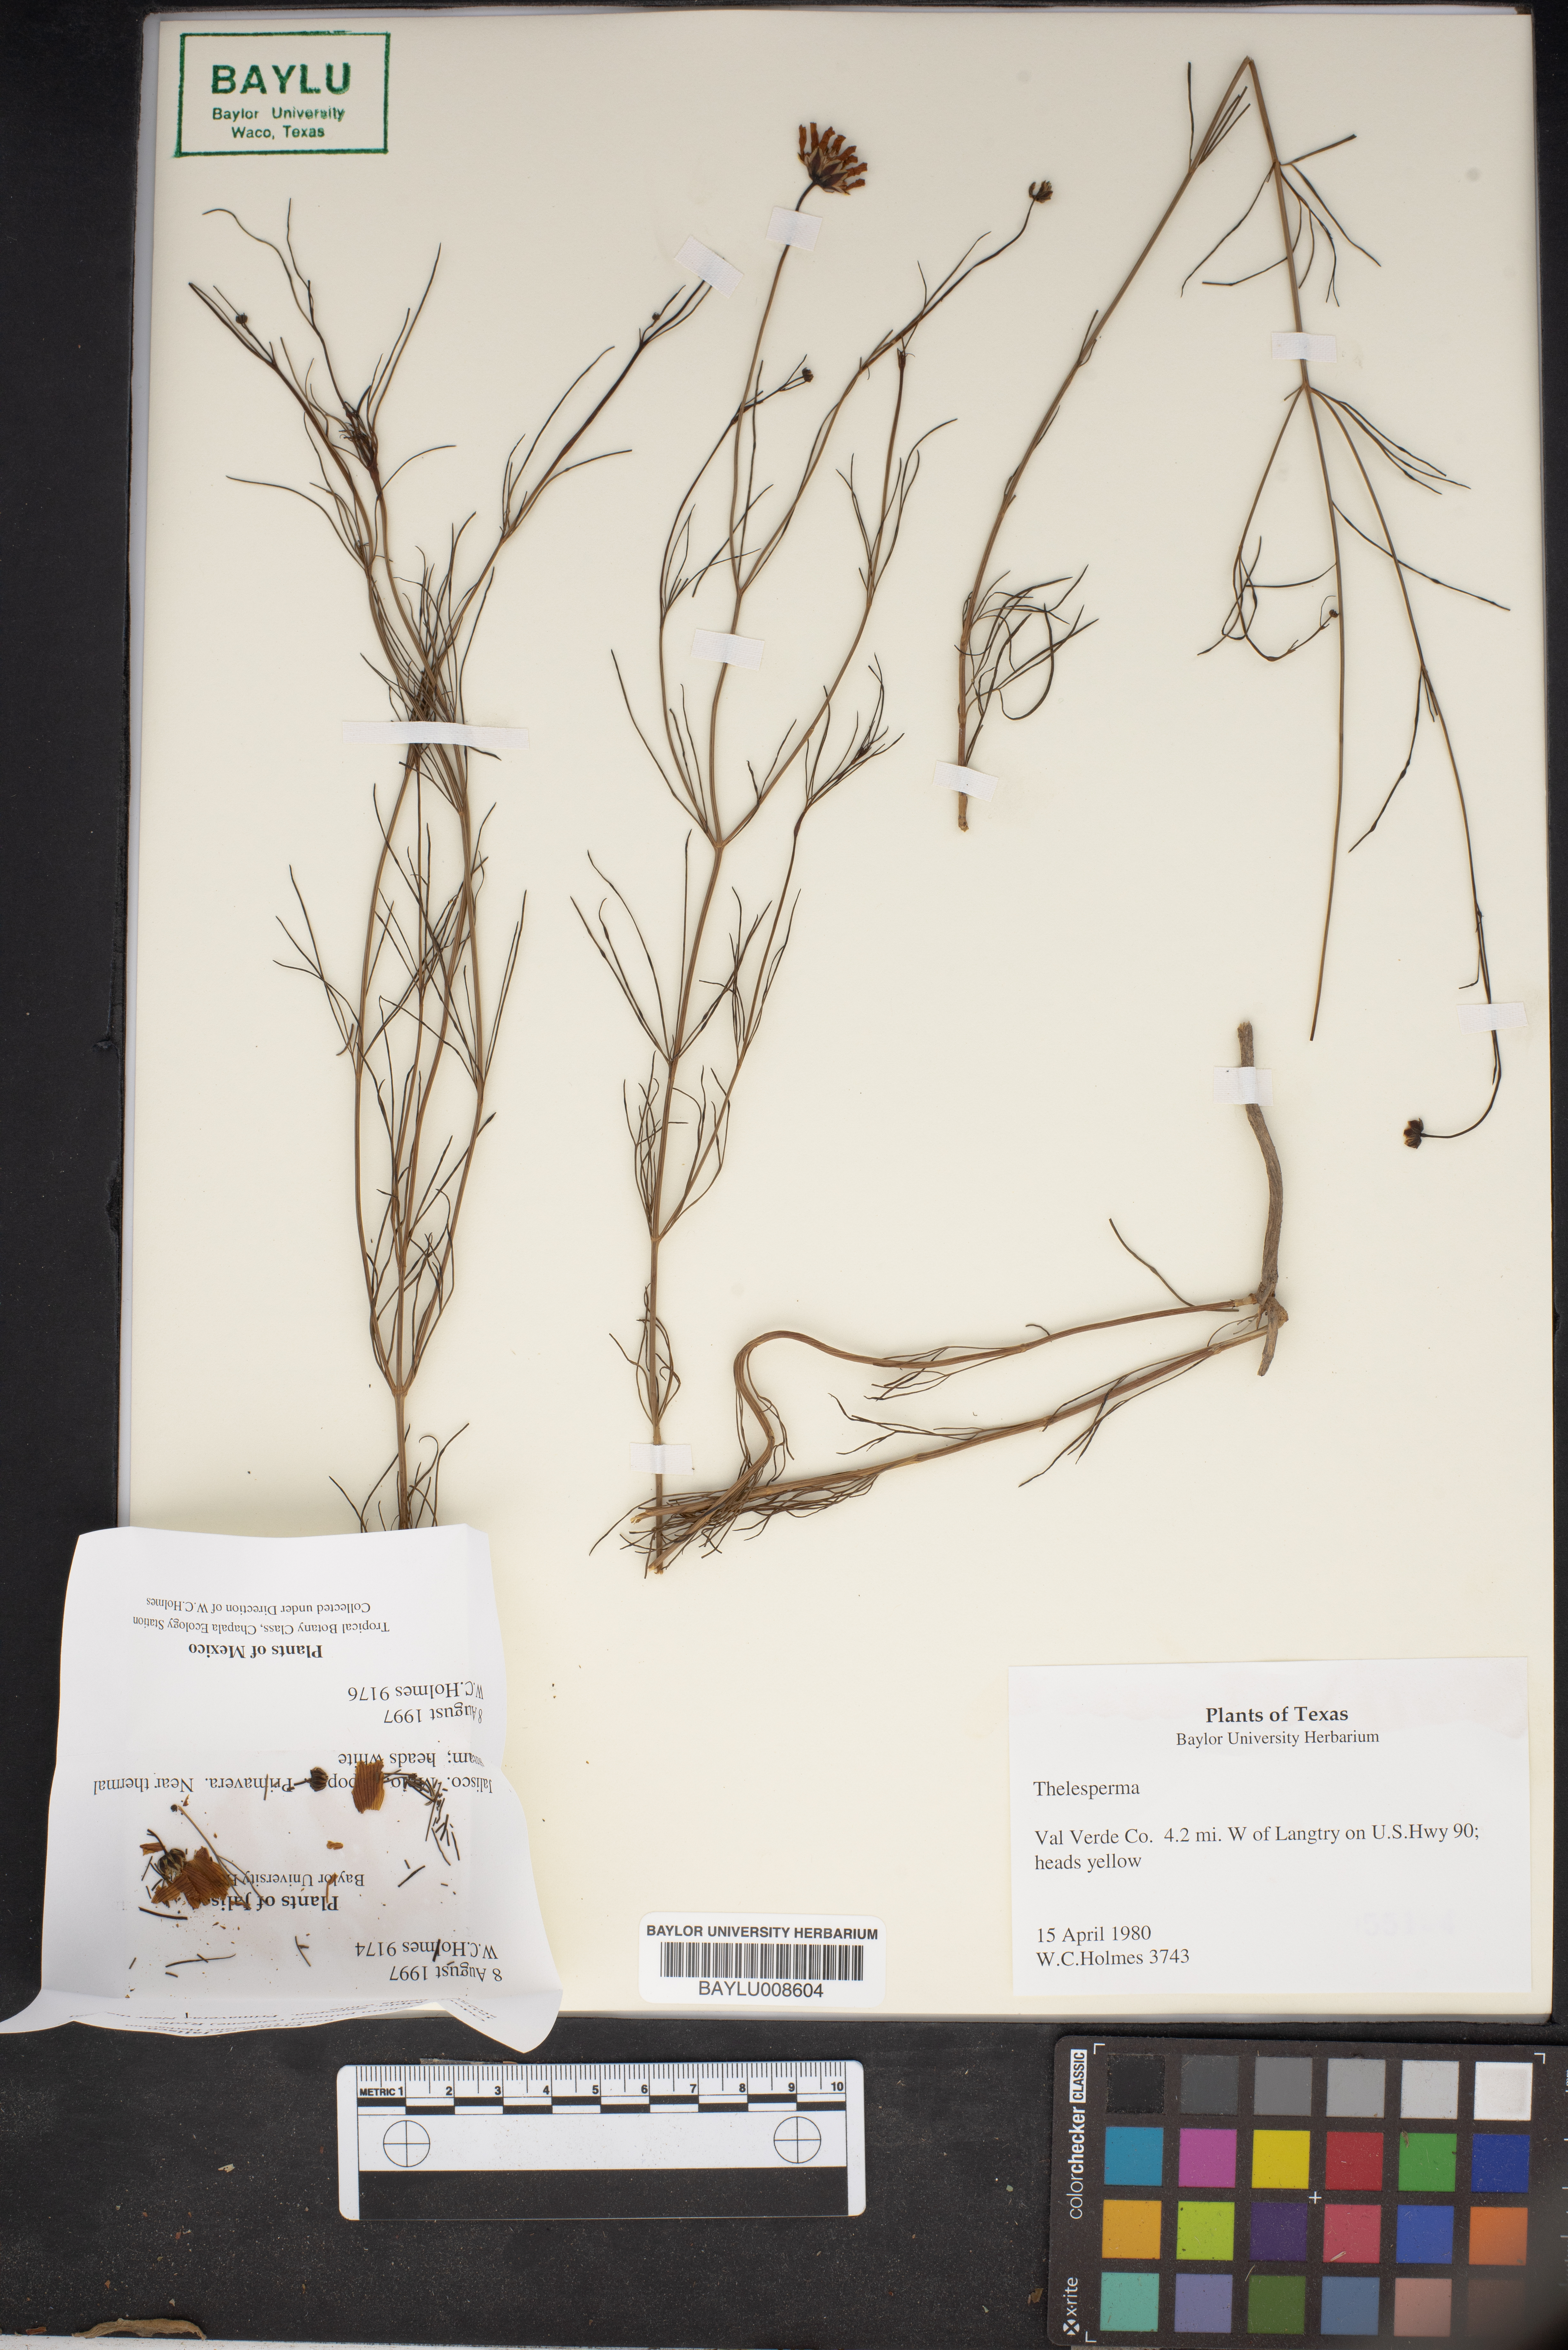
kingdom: Plantae
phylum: Tracheophyta
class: Magnoliopsida
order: Asterales
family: Asteraceae
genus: Thelesperma
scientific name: Thelesperma
